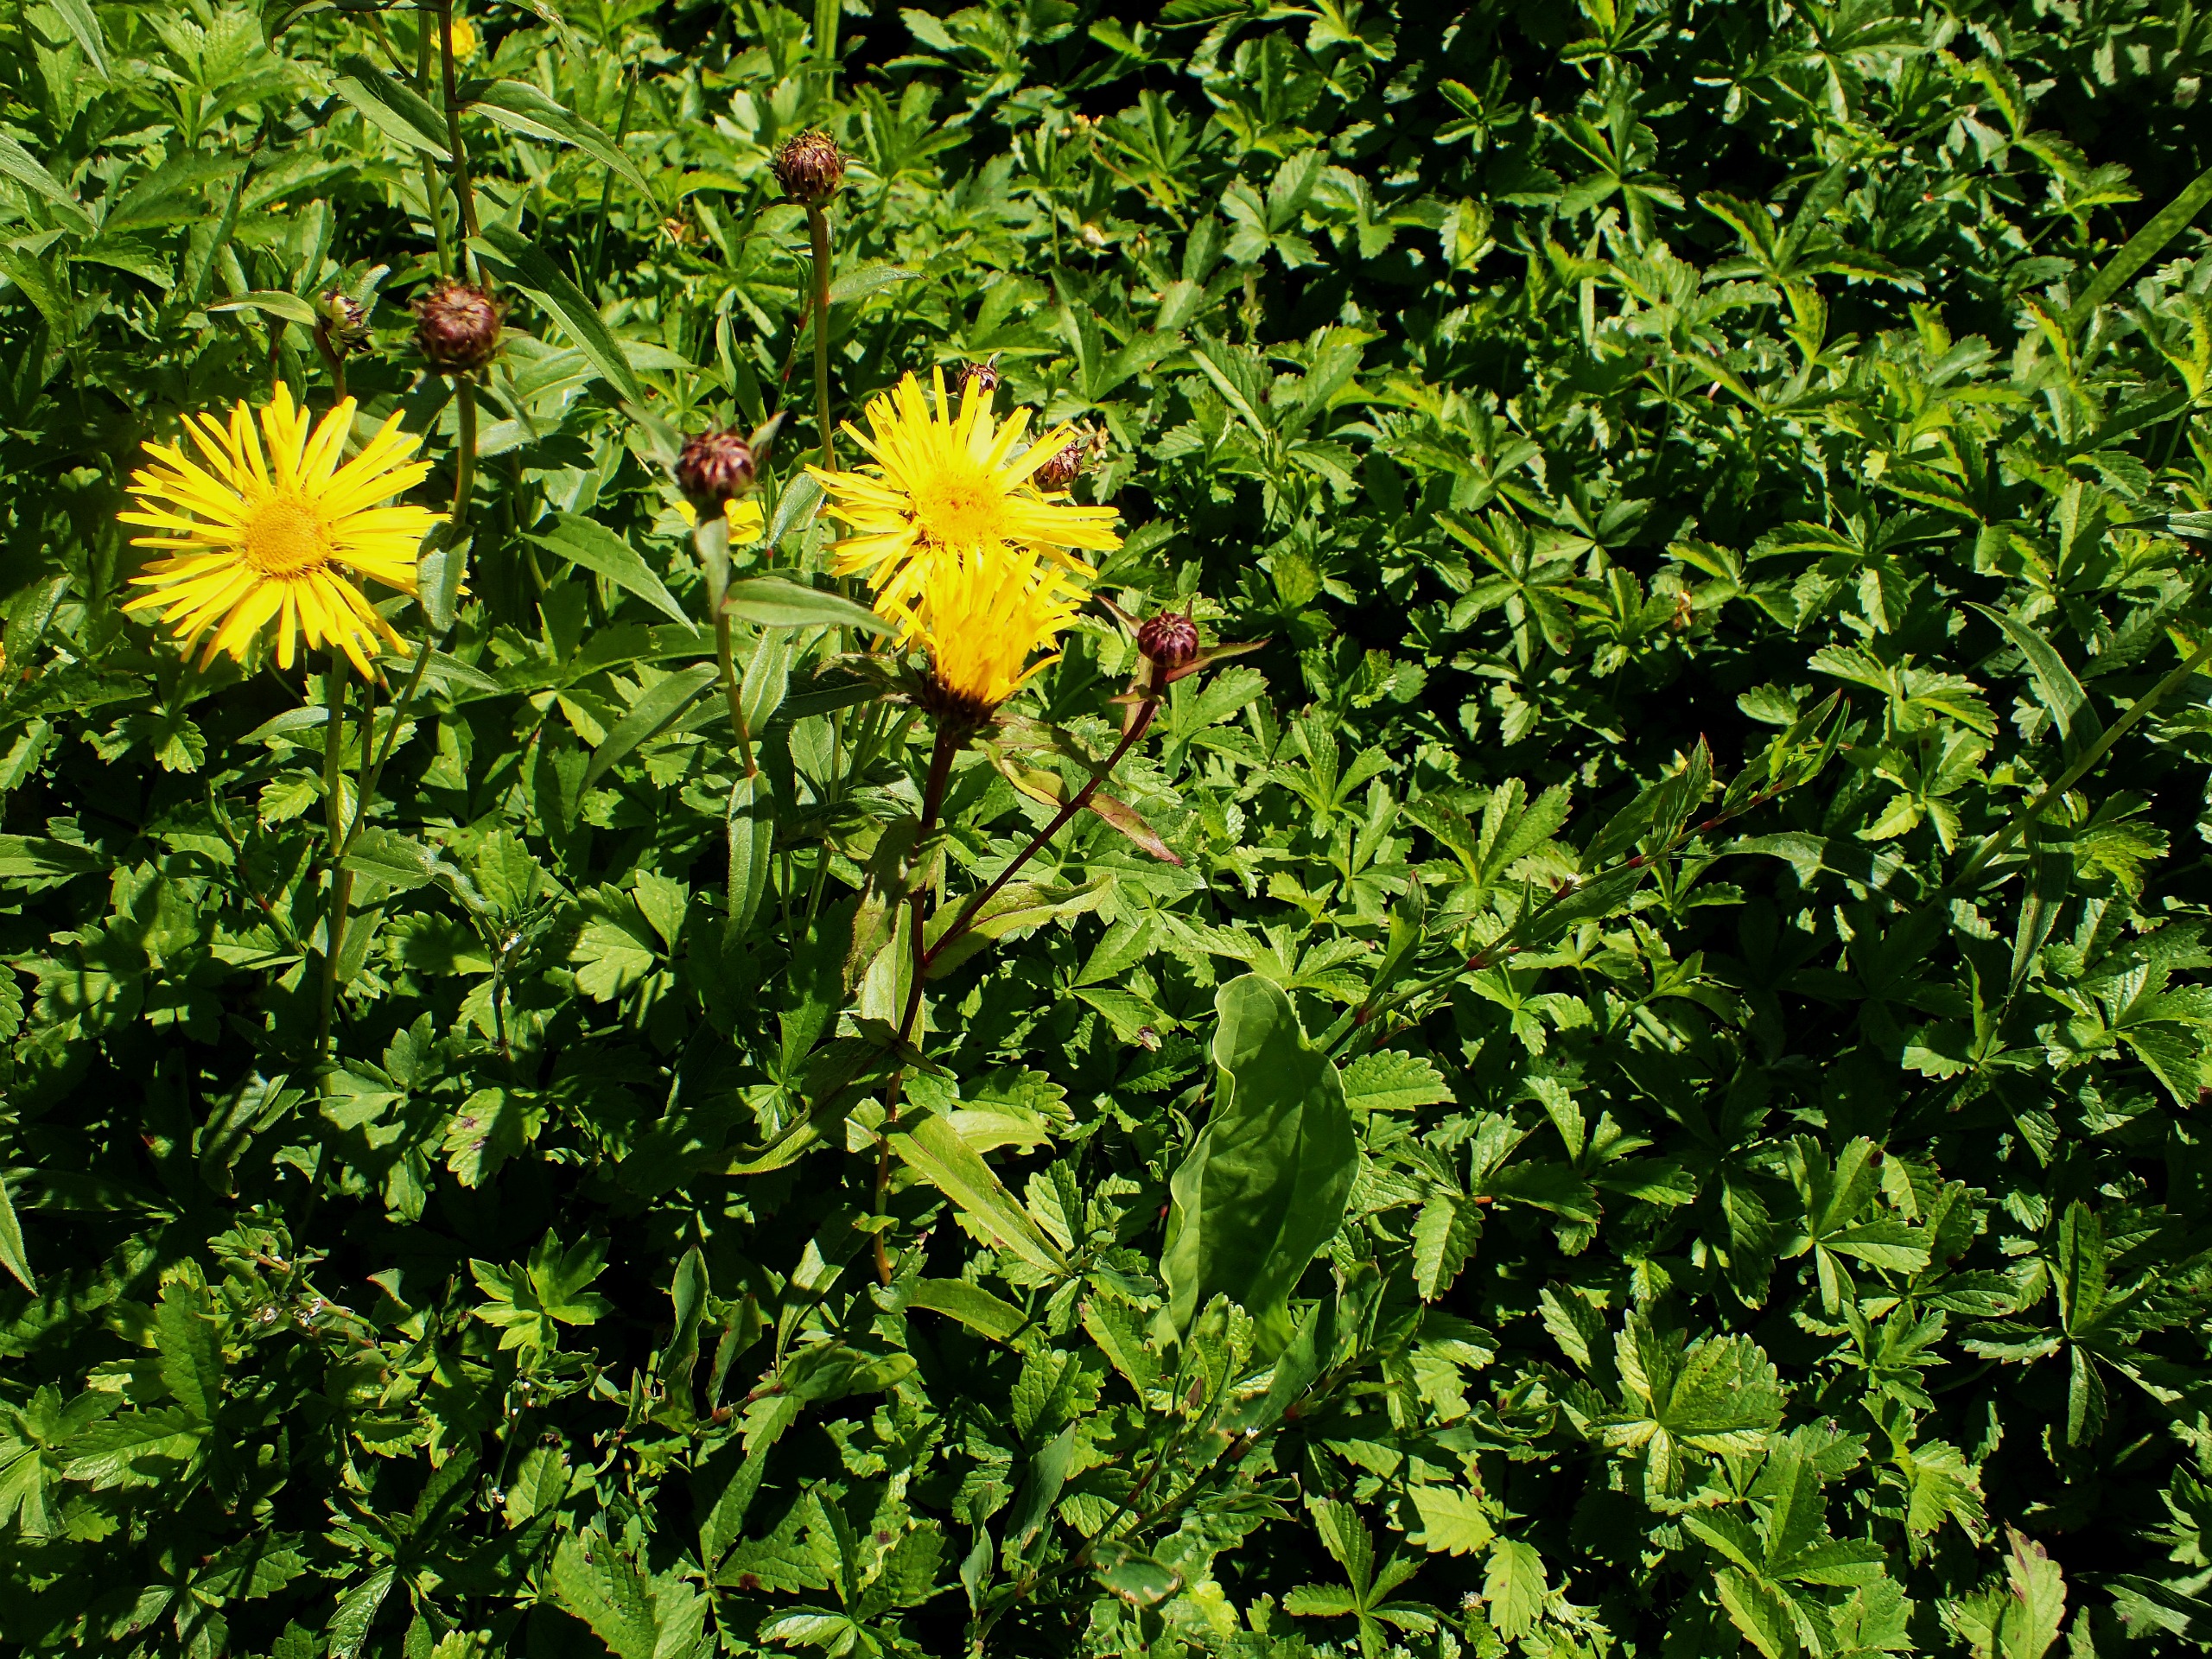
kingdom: Plantae
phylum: Tracheophyta
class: Magnoliopsida
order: Asterales
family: Asteraceae
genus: Pentanema
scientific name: Pentanema salicinum
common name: Pile-alant
